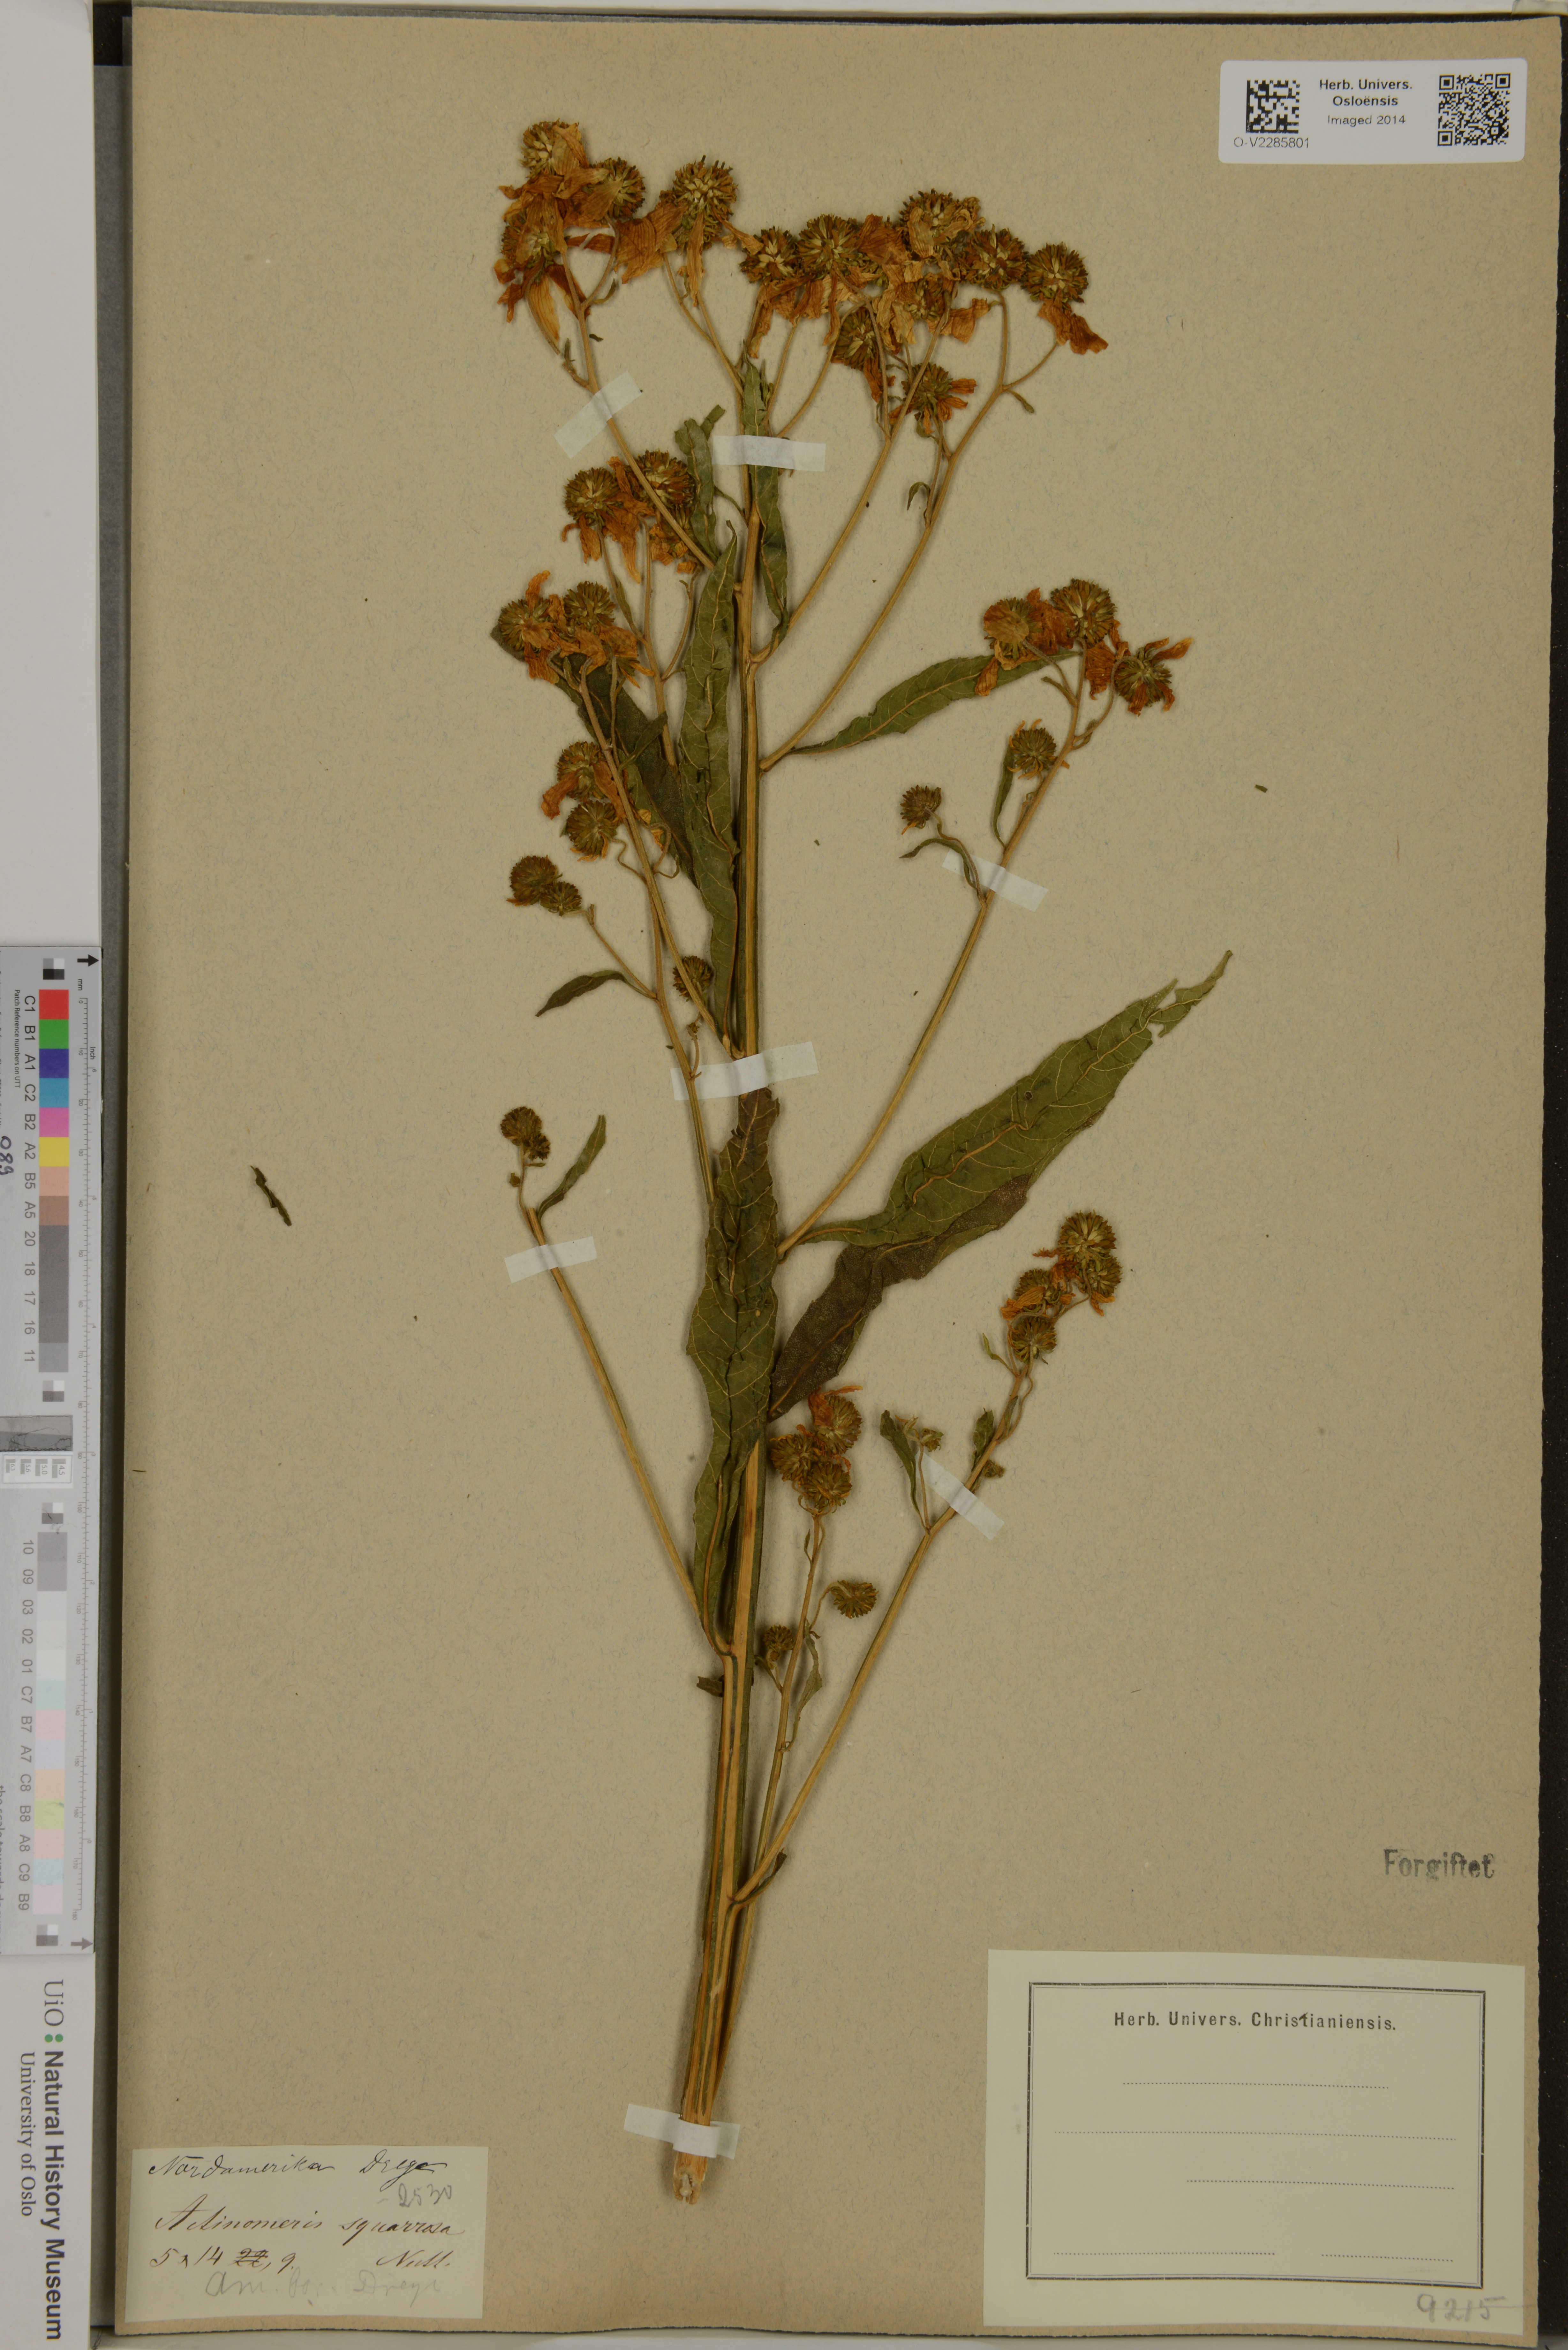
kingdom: Plantae
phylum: Tracheophyta
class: Magnoliopsida
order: Asterales
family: Asteraceae
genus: Verbesina
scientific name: Verbesina alternifolia
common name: Wingstem
